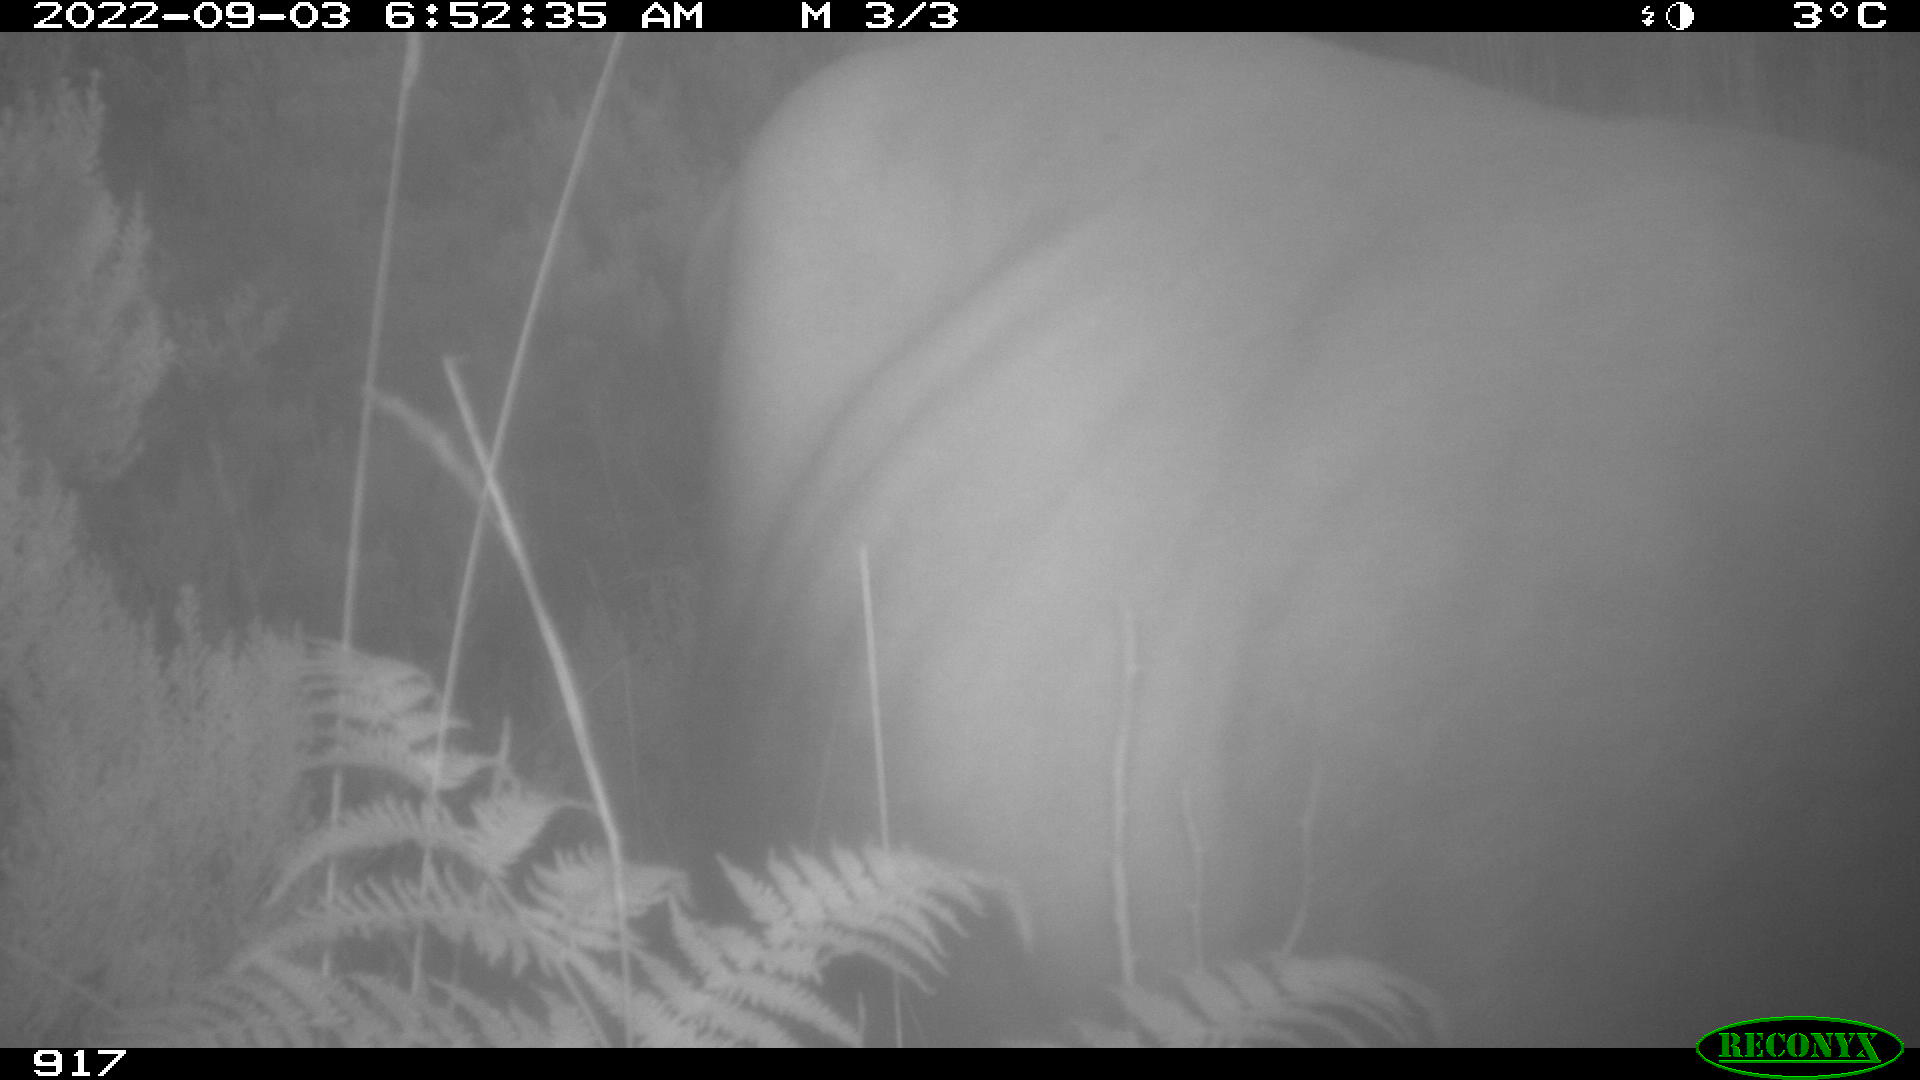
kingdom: Animalia
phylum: Chordata
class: Mammalia
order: Artiodactyla
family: Bovidae
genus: Bos
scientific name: Bos taurus
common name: Domesticated cattle
